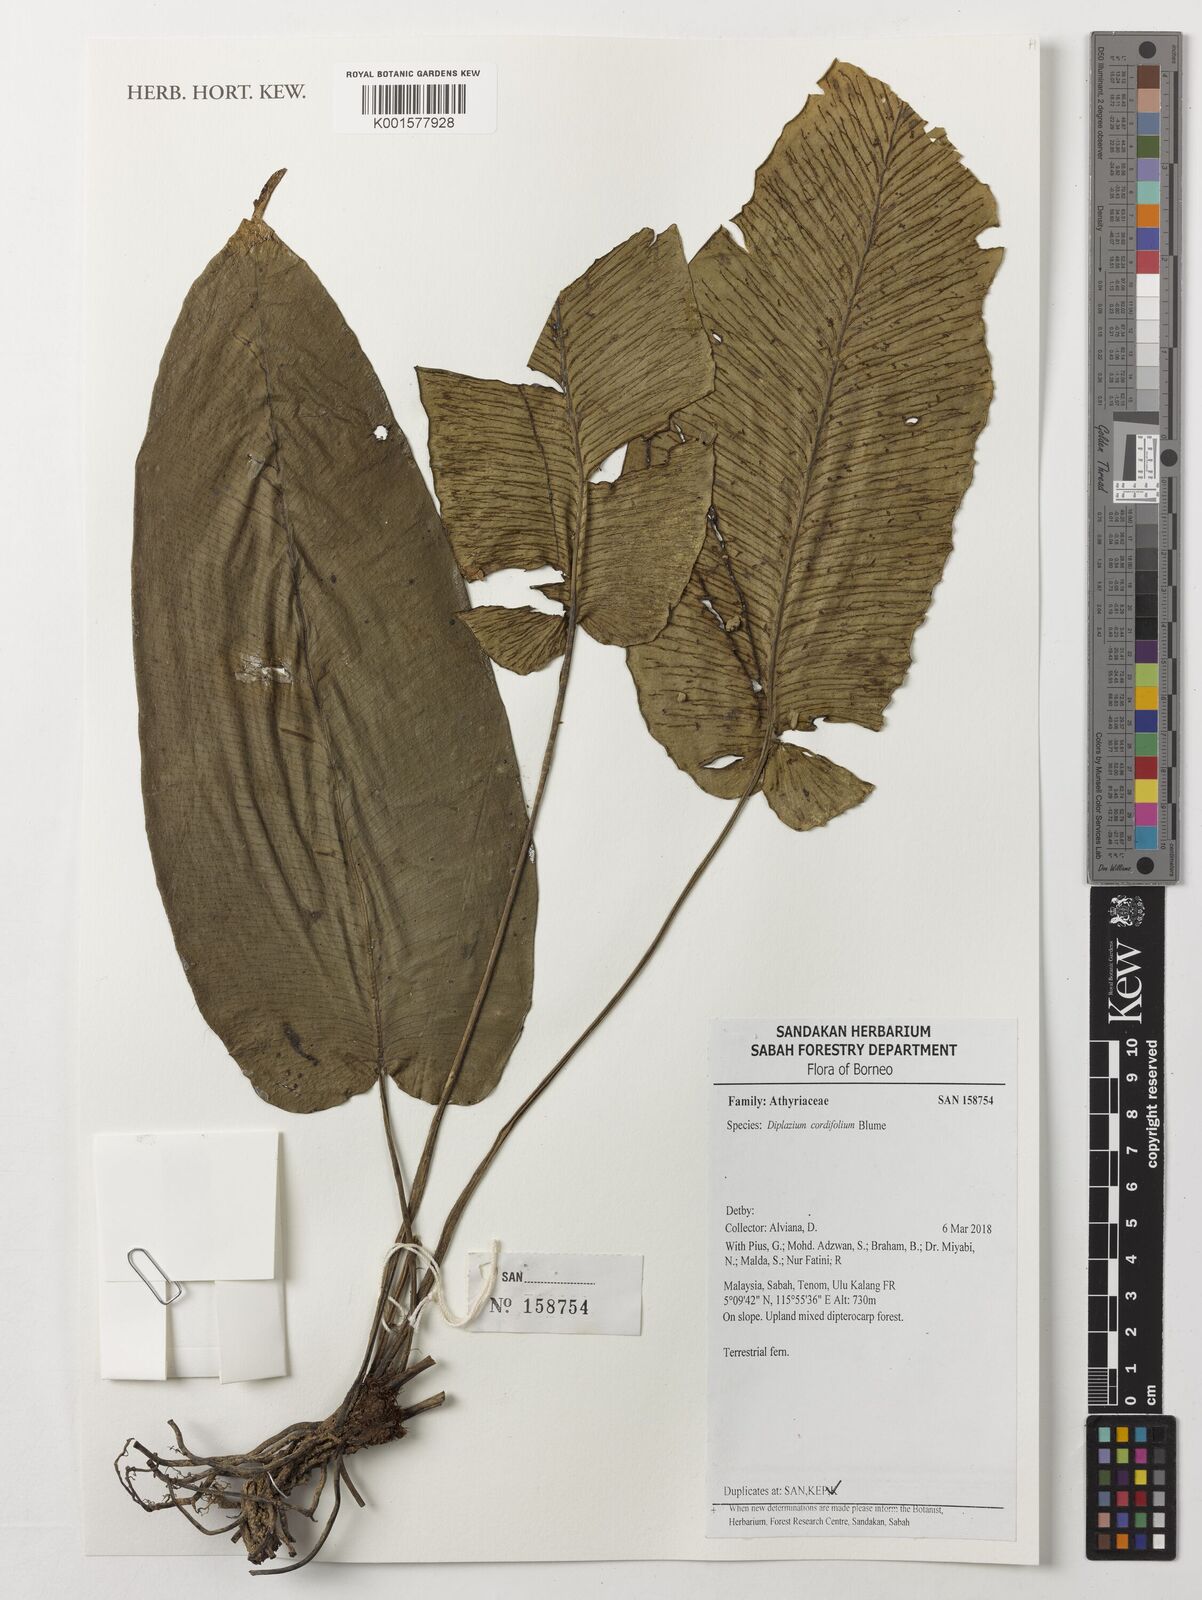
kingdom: Plantae
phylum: Tracheophyta
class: Polypodiopsida
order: Polypodiales
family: Athyriaceae
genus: Diplazium
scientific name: Diplazium cordifolium
